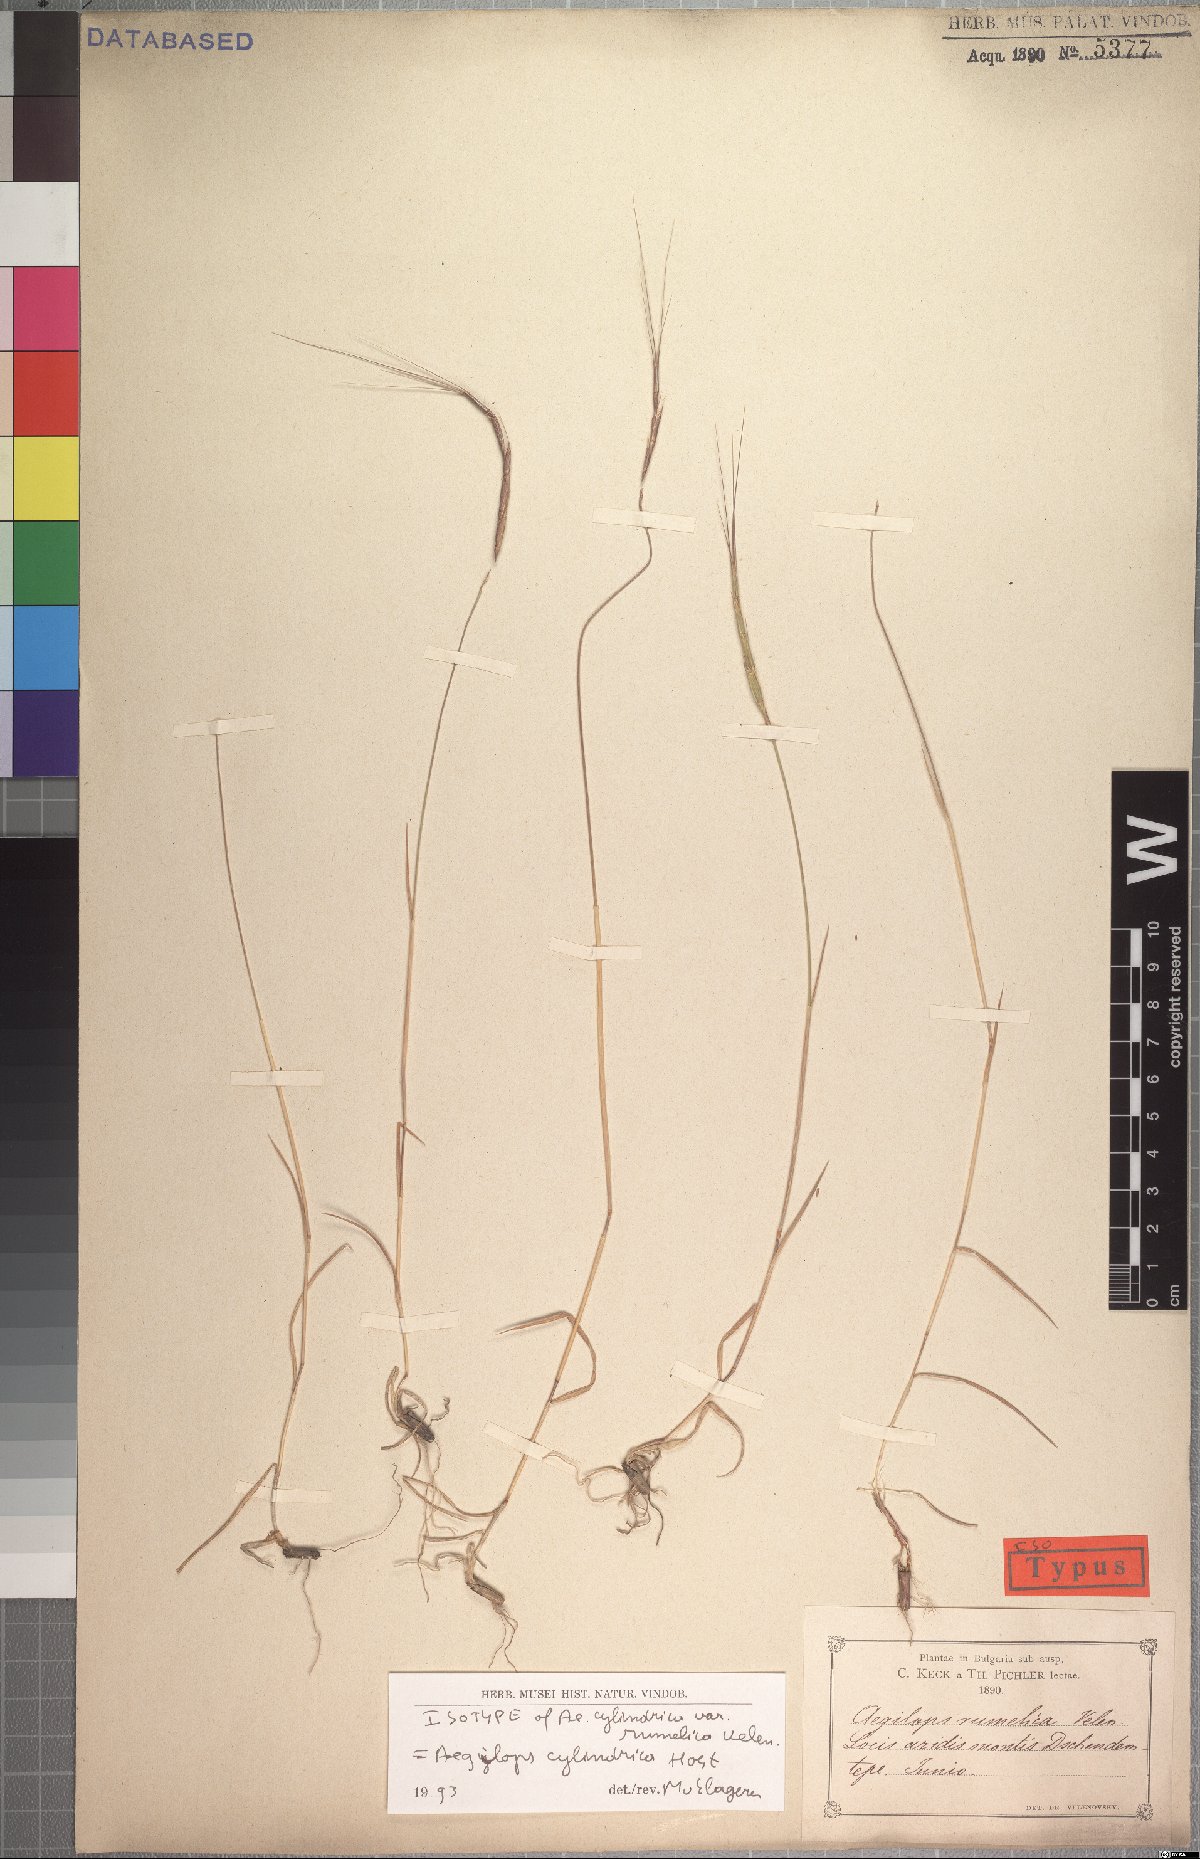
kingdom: Plantae
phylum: Tracheophyta
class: Liliopsida
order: Poales
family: Poaceae
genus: Aegilops
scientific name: Aegilops cylindrica
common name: Jointed goatgrass
